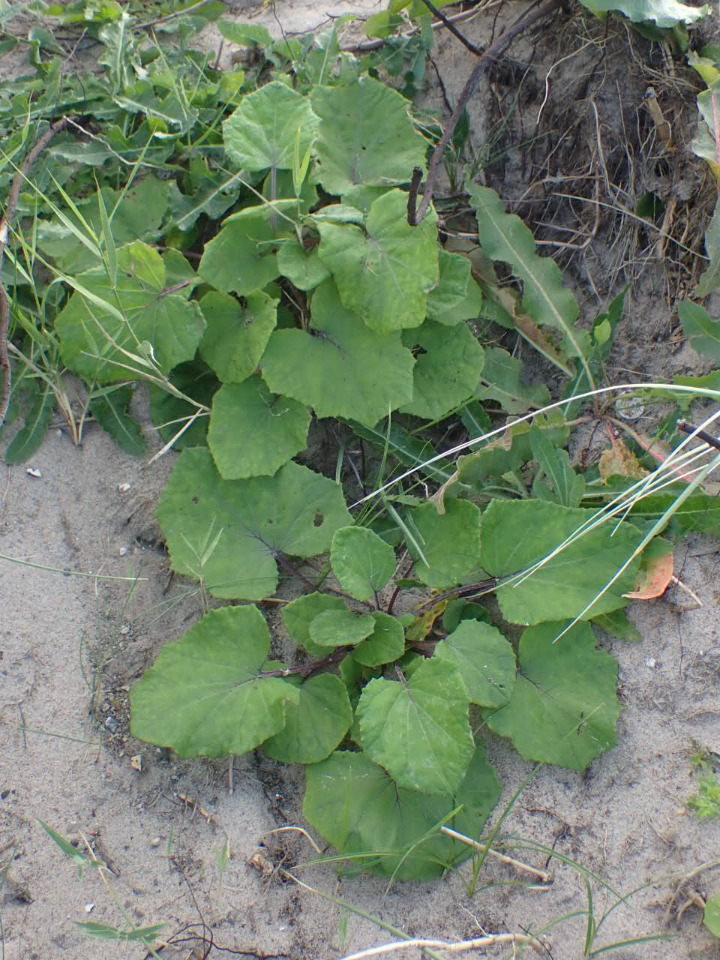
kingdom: Plantae
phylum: Tracheophyta
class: Magnoliopsida
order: Asterales
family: Asteraceae
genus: Tussilago
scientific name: Tussilago farfara
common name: Følfod
